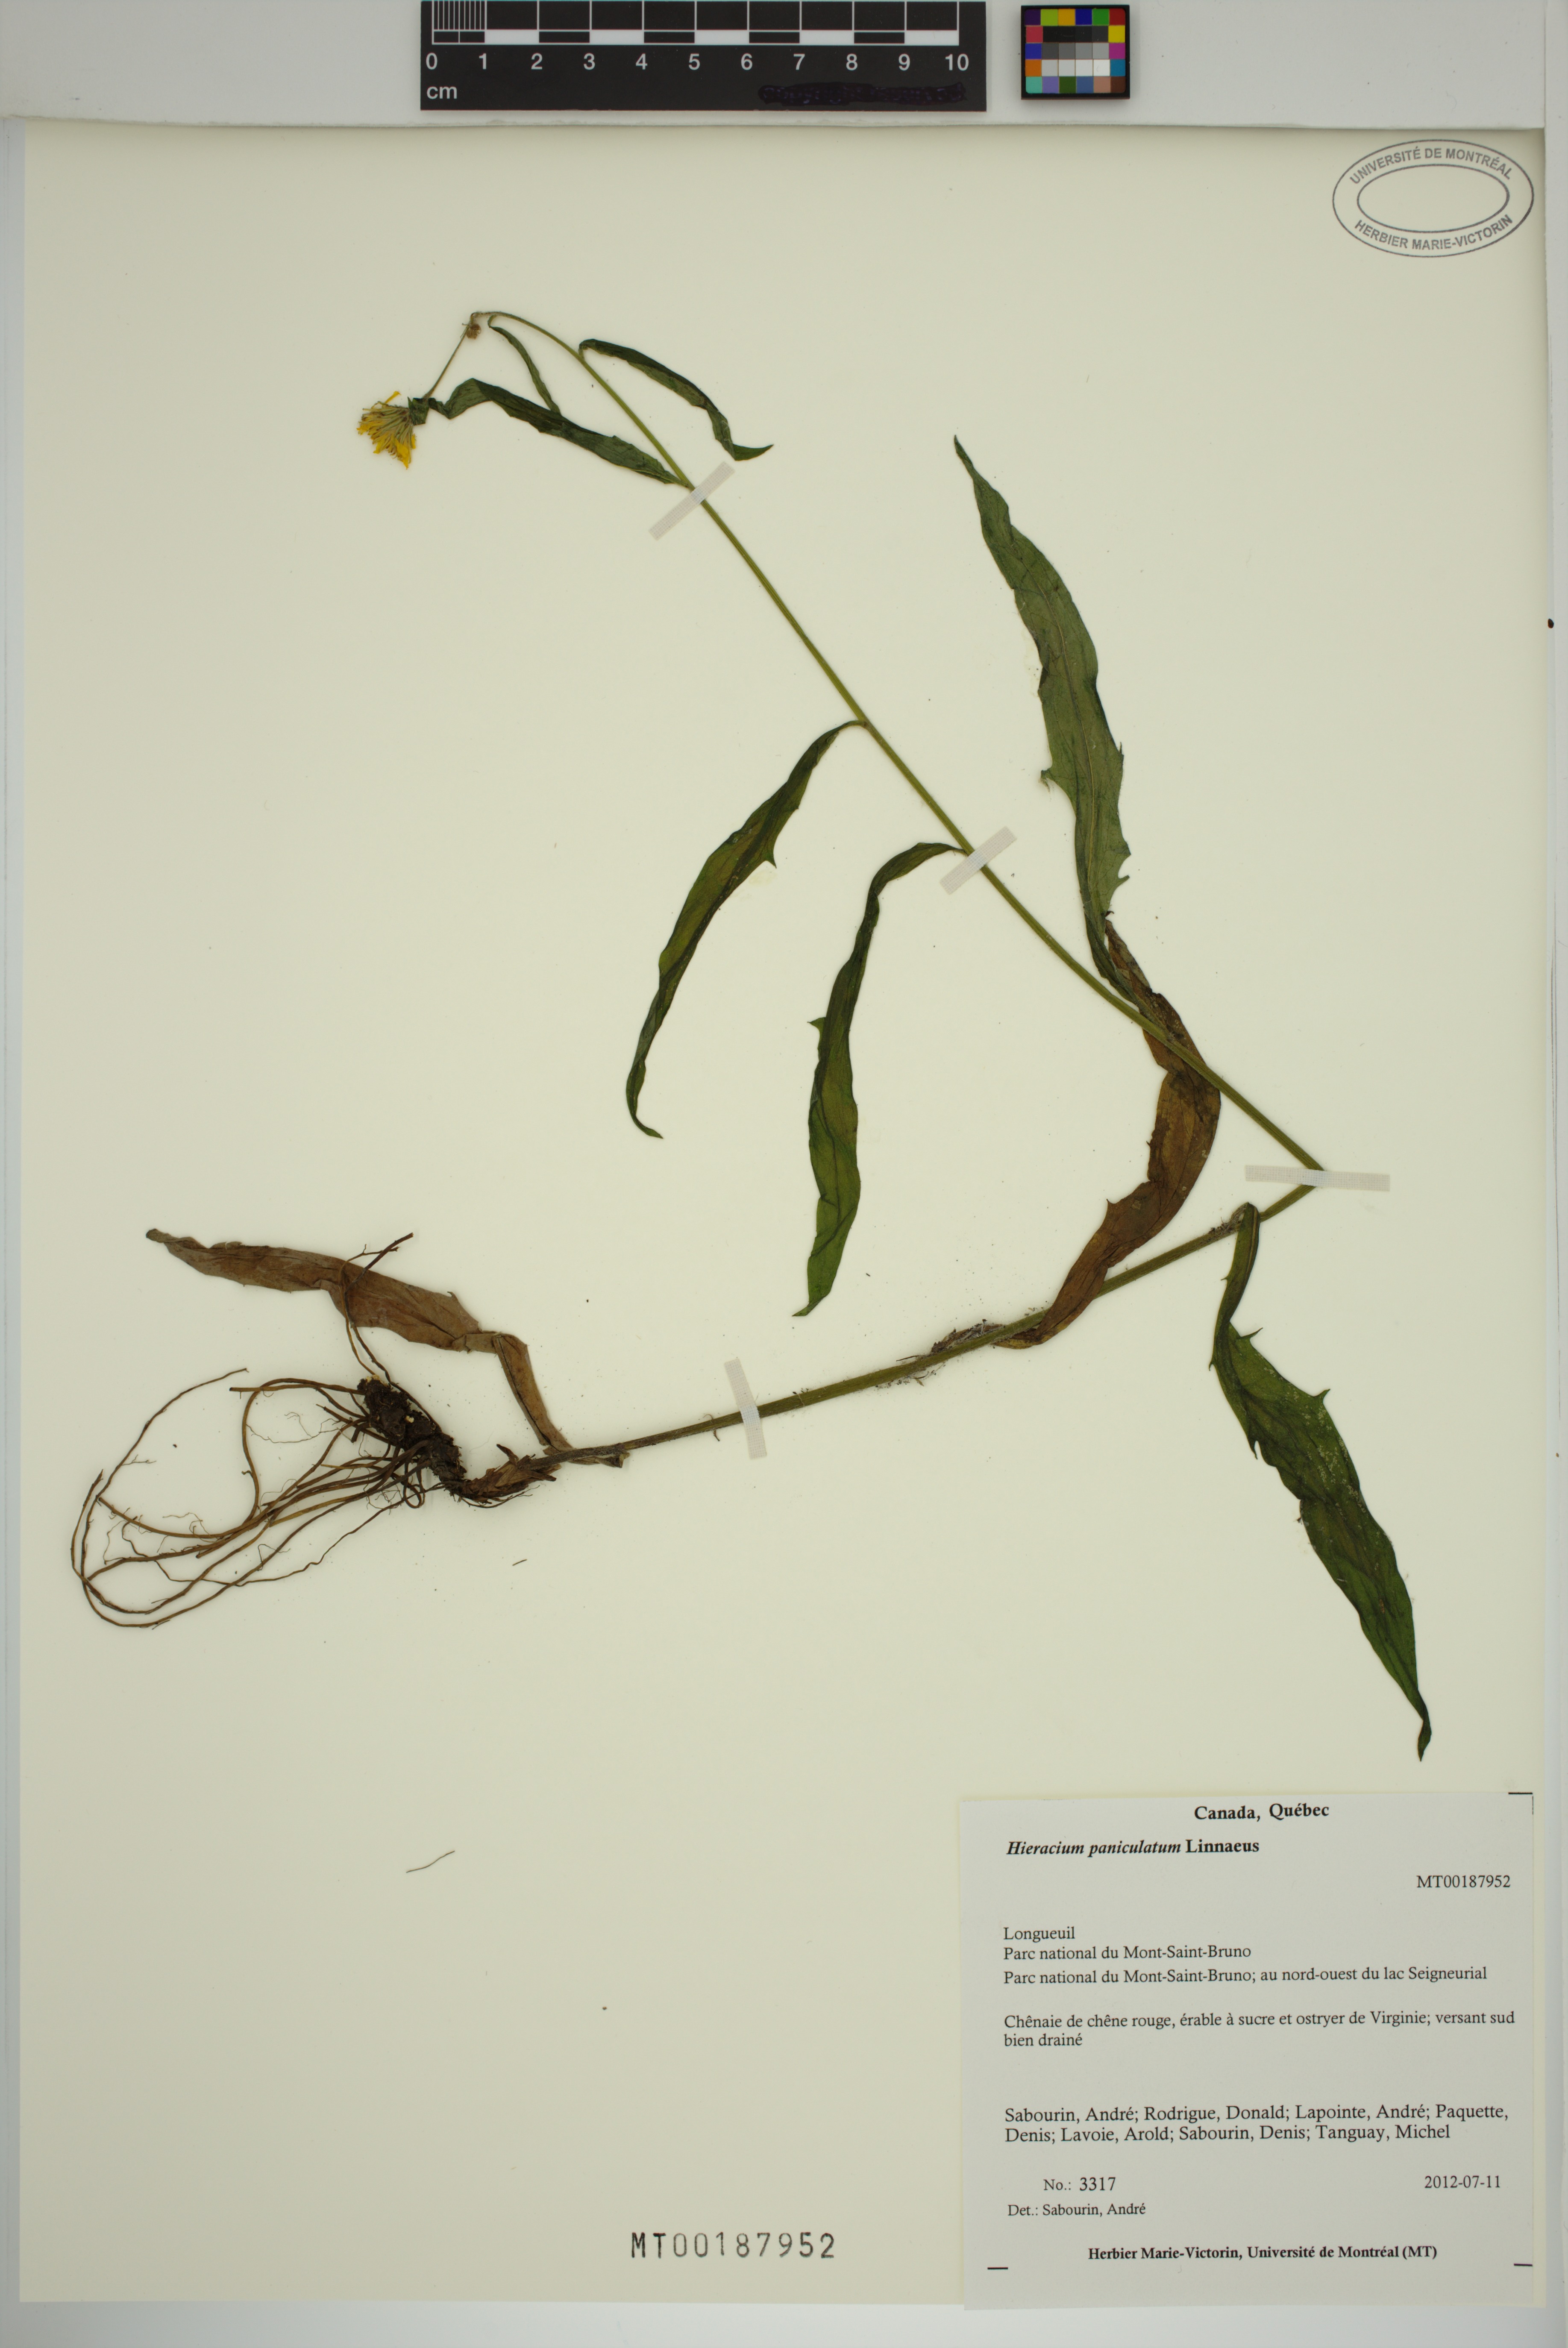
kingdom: Plantae
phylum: Tracheophyta
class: Magnoliopsida
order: Asterales
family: Asteraceae
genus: Hieracium
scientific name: Hieracium paniculatum
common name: Allegheny hawkweed
